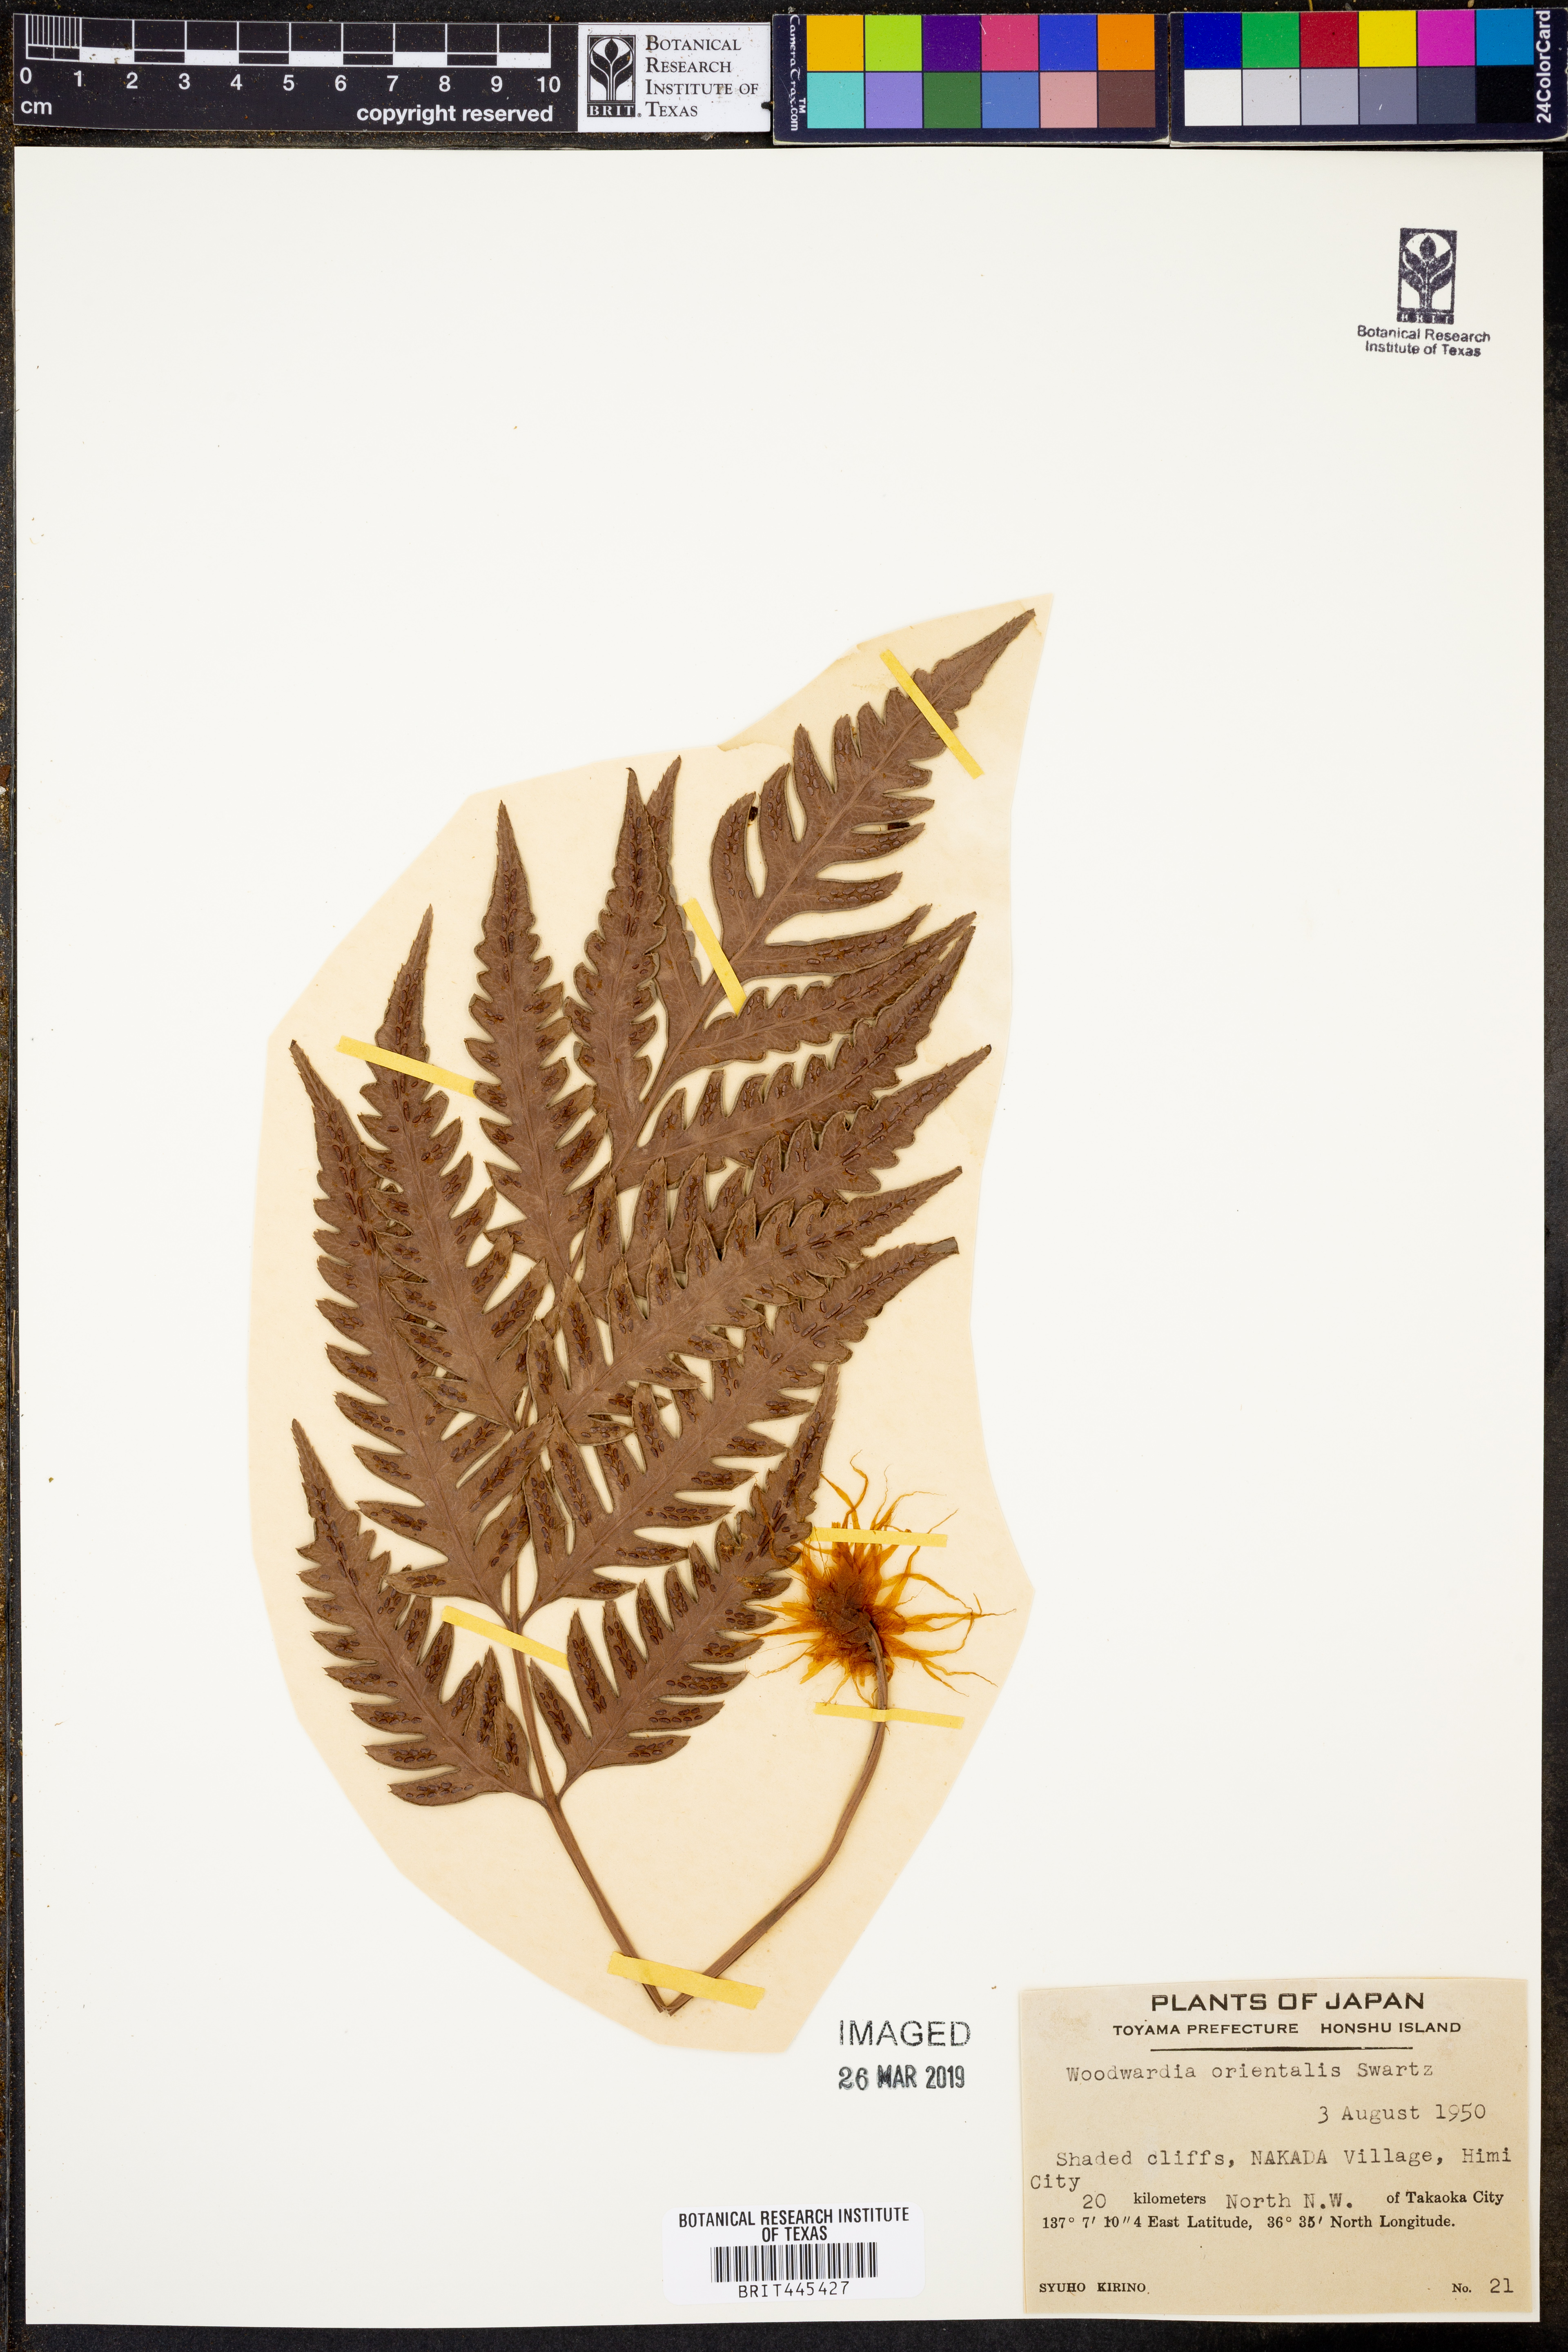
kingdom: Plantae
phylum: Tracheophyta
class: Polypodiopsida
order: Polypodiales
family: Blechnaceae
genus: Woodwardia
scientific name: Woodwardia orientalis
